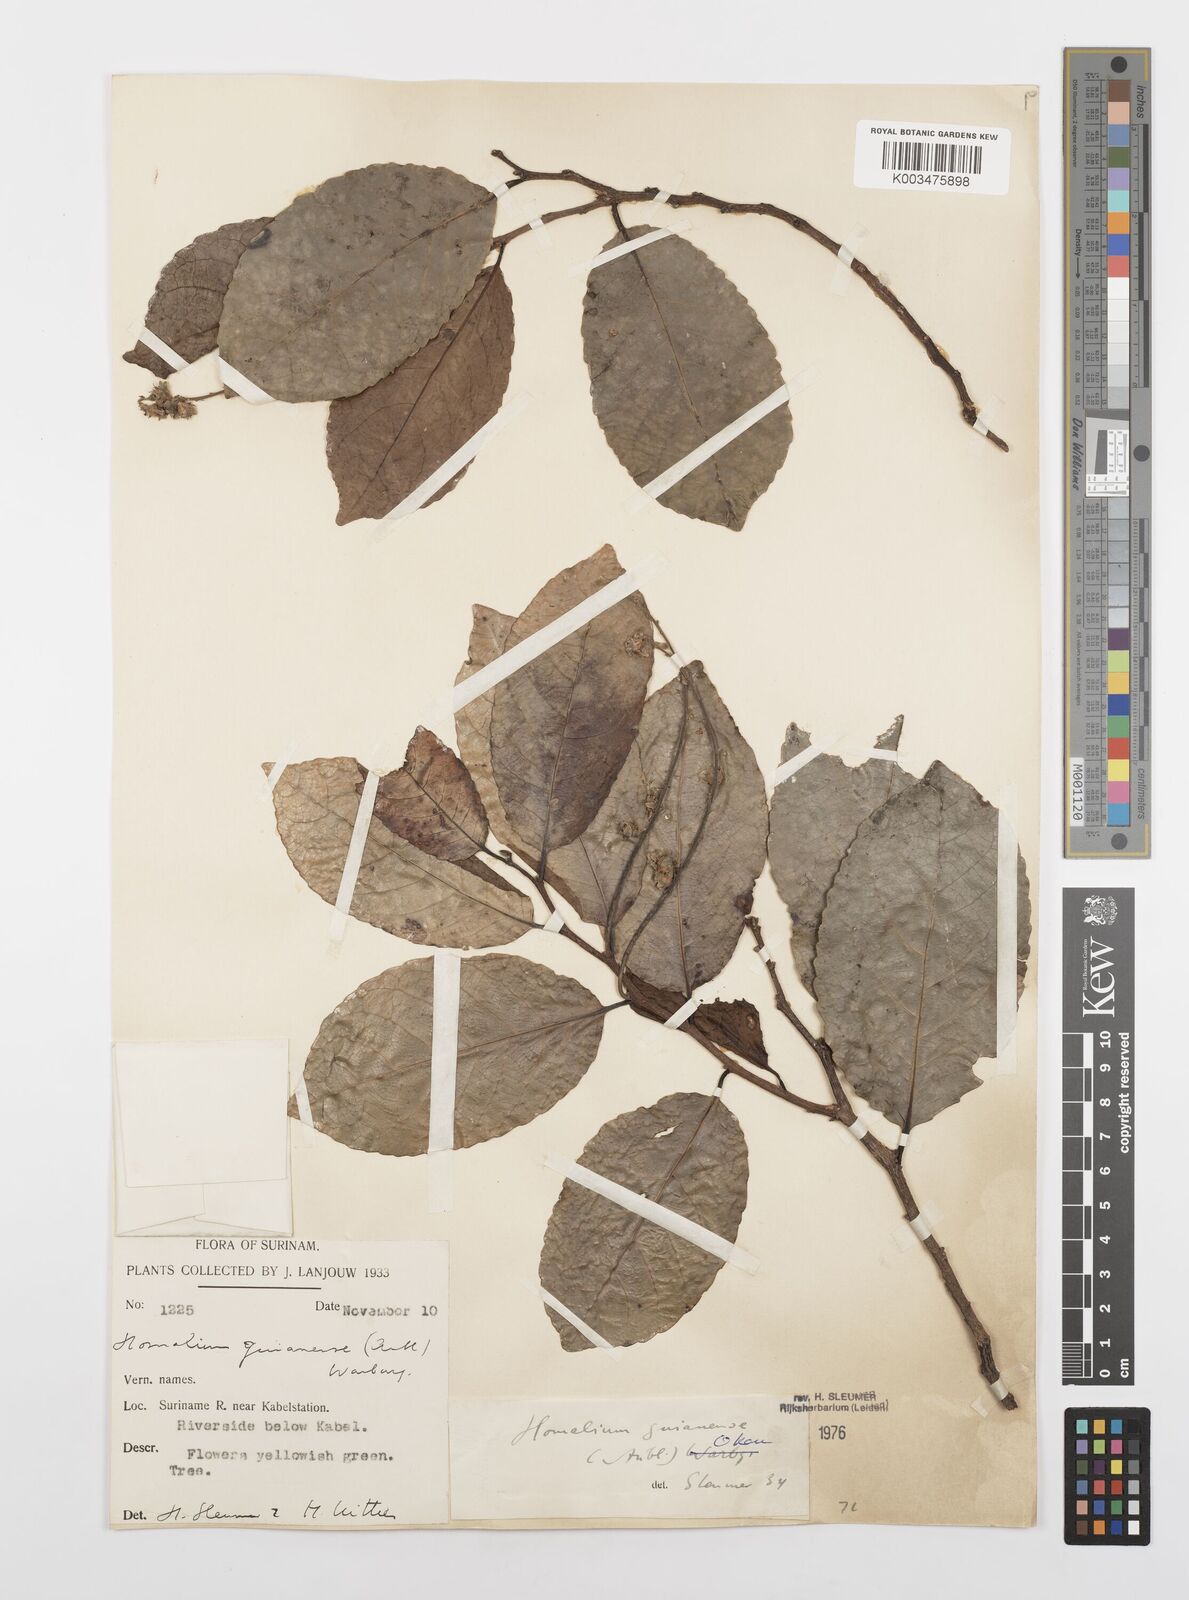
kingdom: Plantae
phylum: Tracheophyta
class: Magnoliopsida
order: Malpighiales
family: Salicaceae
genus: Homalium
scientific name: Homalium guianense
